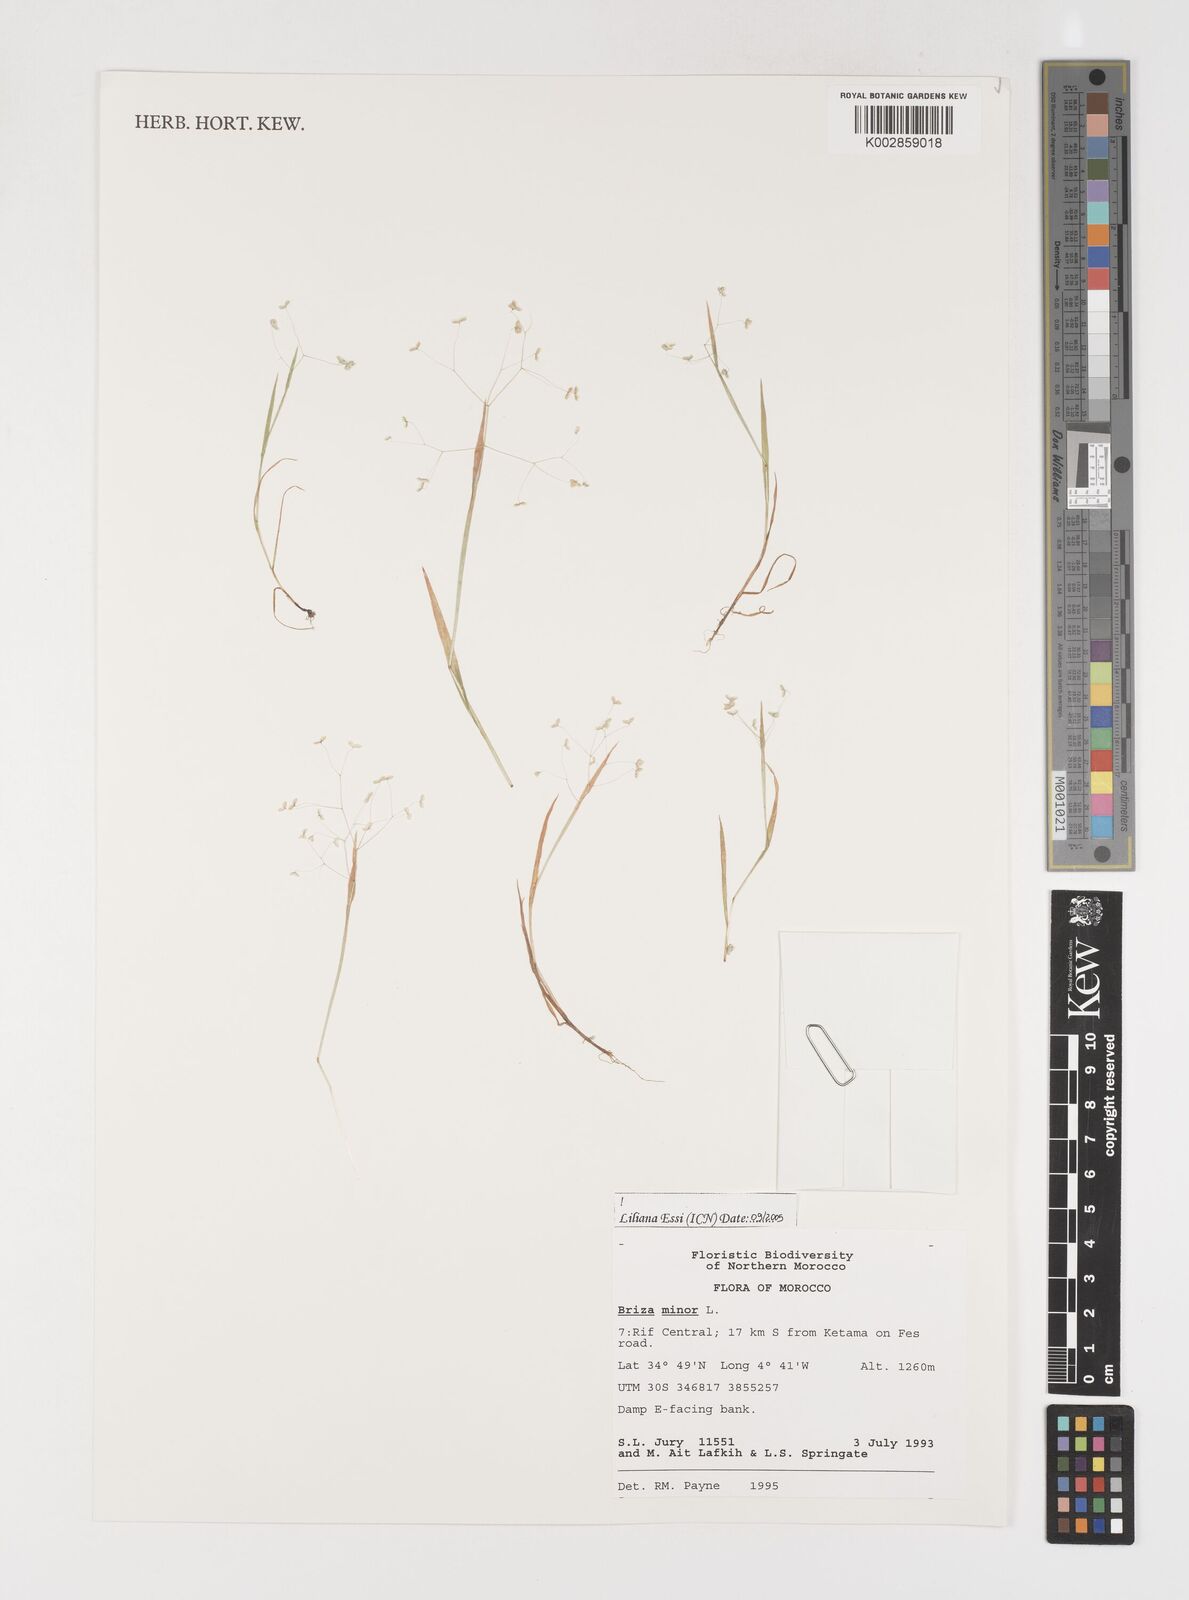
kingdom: Plantae
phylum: Tracheophyta
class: Liliopsida
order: Poales
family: Poaceae
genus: Briza
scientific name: Briza minor
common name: Lesser quaking-grass
